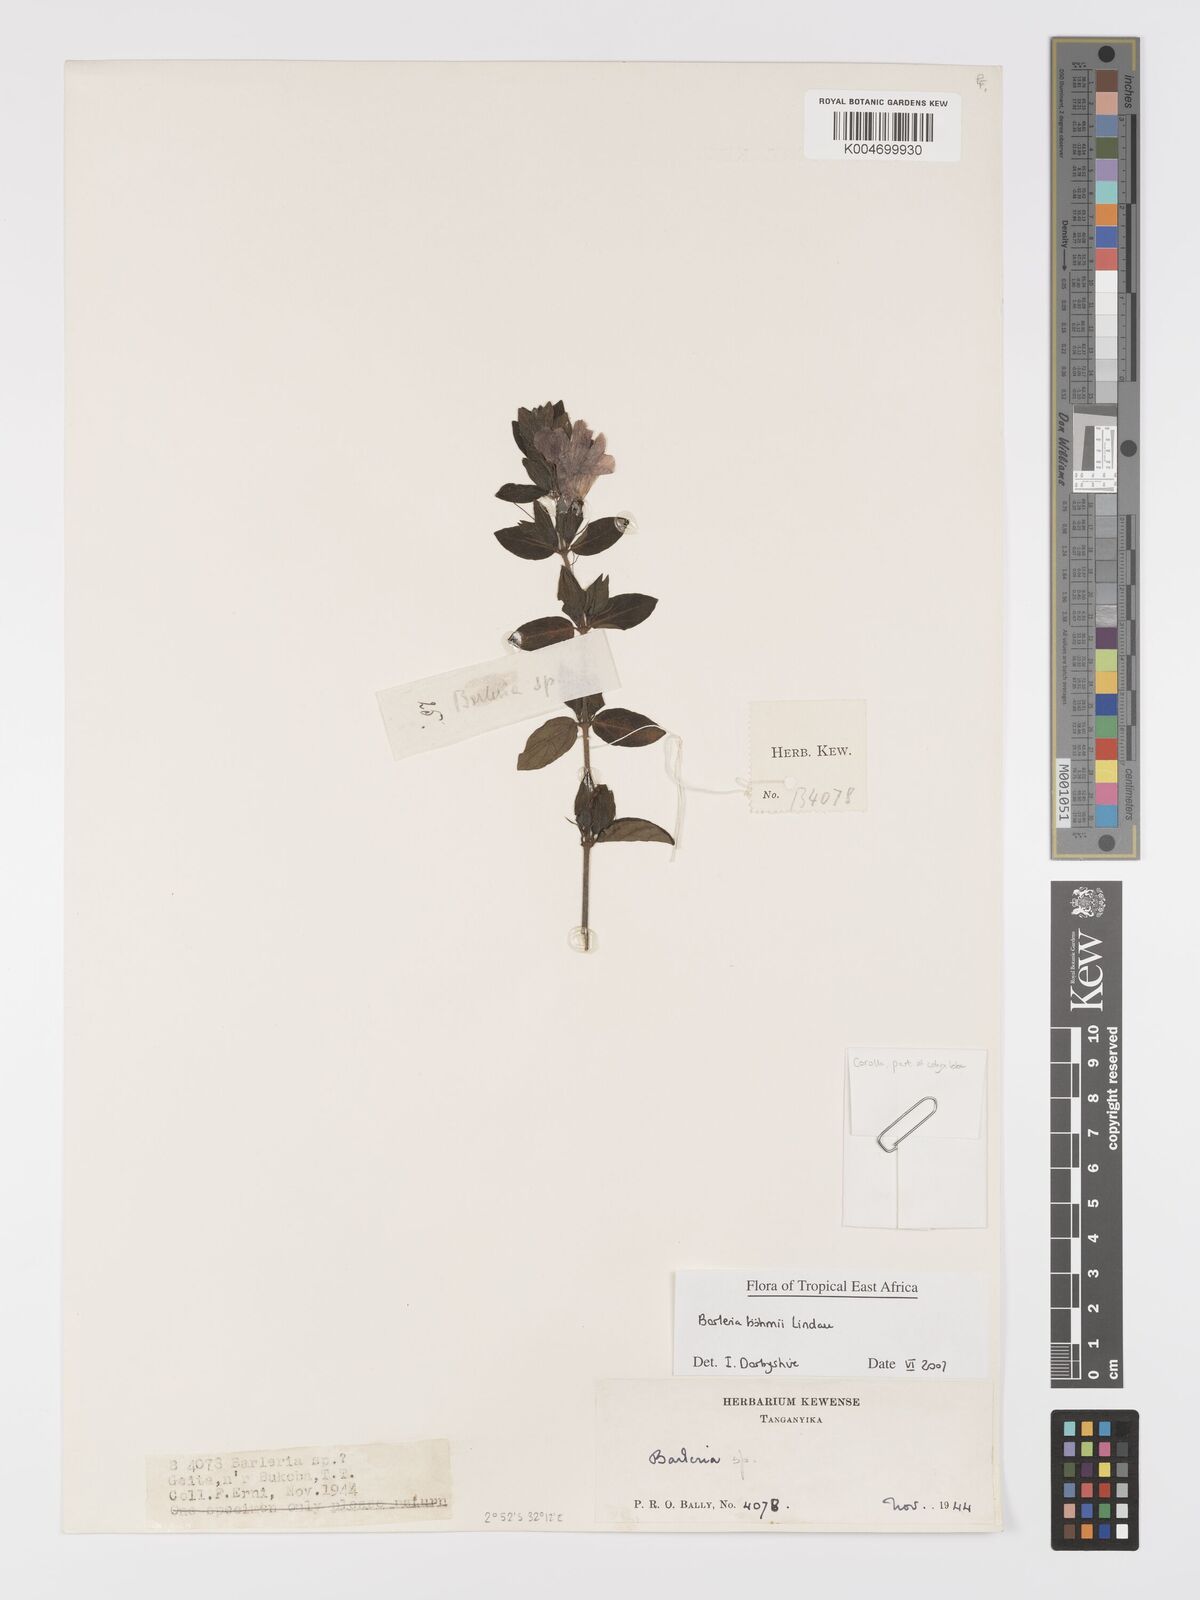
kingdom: Plantae
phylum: Tracheophyta
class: Magnoliopsida
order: Lamiales
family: Acanthaceae
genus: Barleria
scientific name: Barleria boehmii
